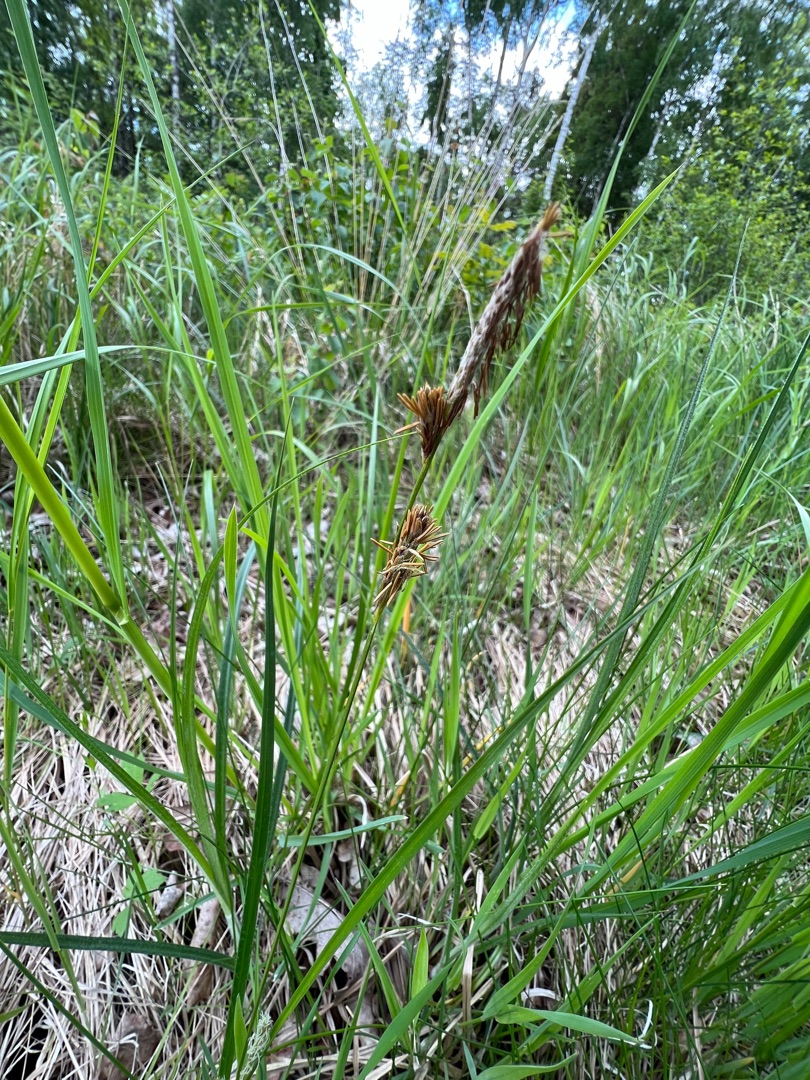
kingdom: Plantae
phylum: Tracheophyta
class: Liliopsida
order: Poales
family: Cyperaceae
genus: Carex
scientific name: Carex hirta
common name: Håret star
